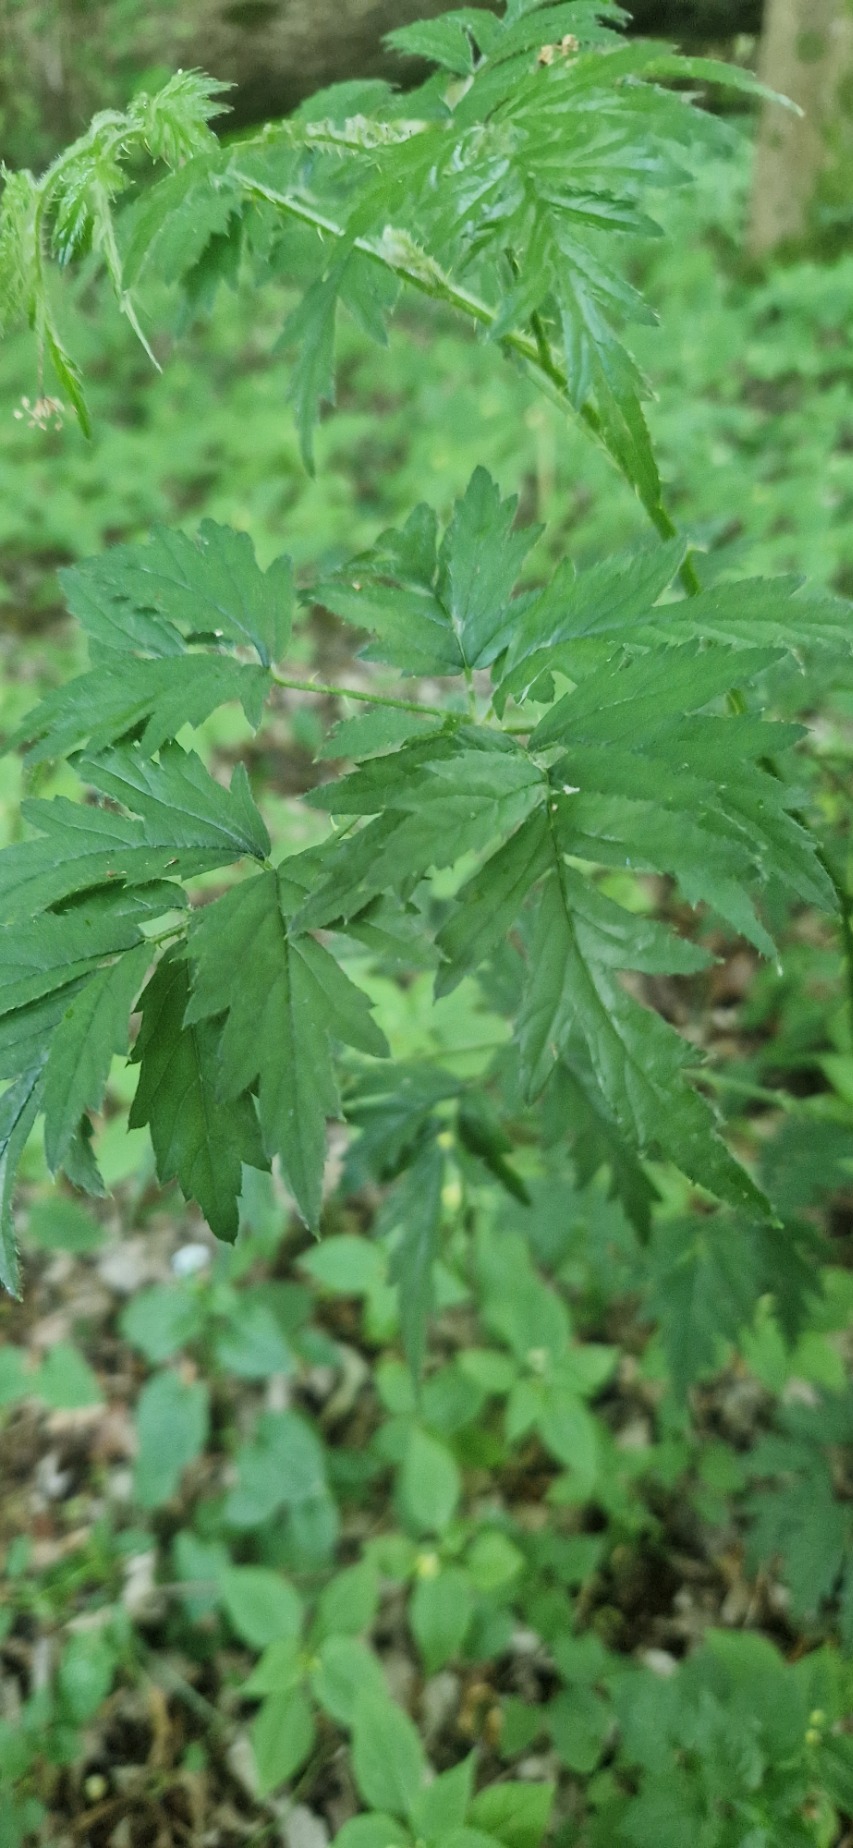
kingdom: Plantae
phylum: Tracheophyta
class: Magnoliopsida
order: Rosales
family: Rosaceae
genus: Rubus
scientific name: Rubus laciniatus
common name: Fliget brombær
